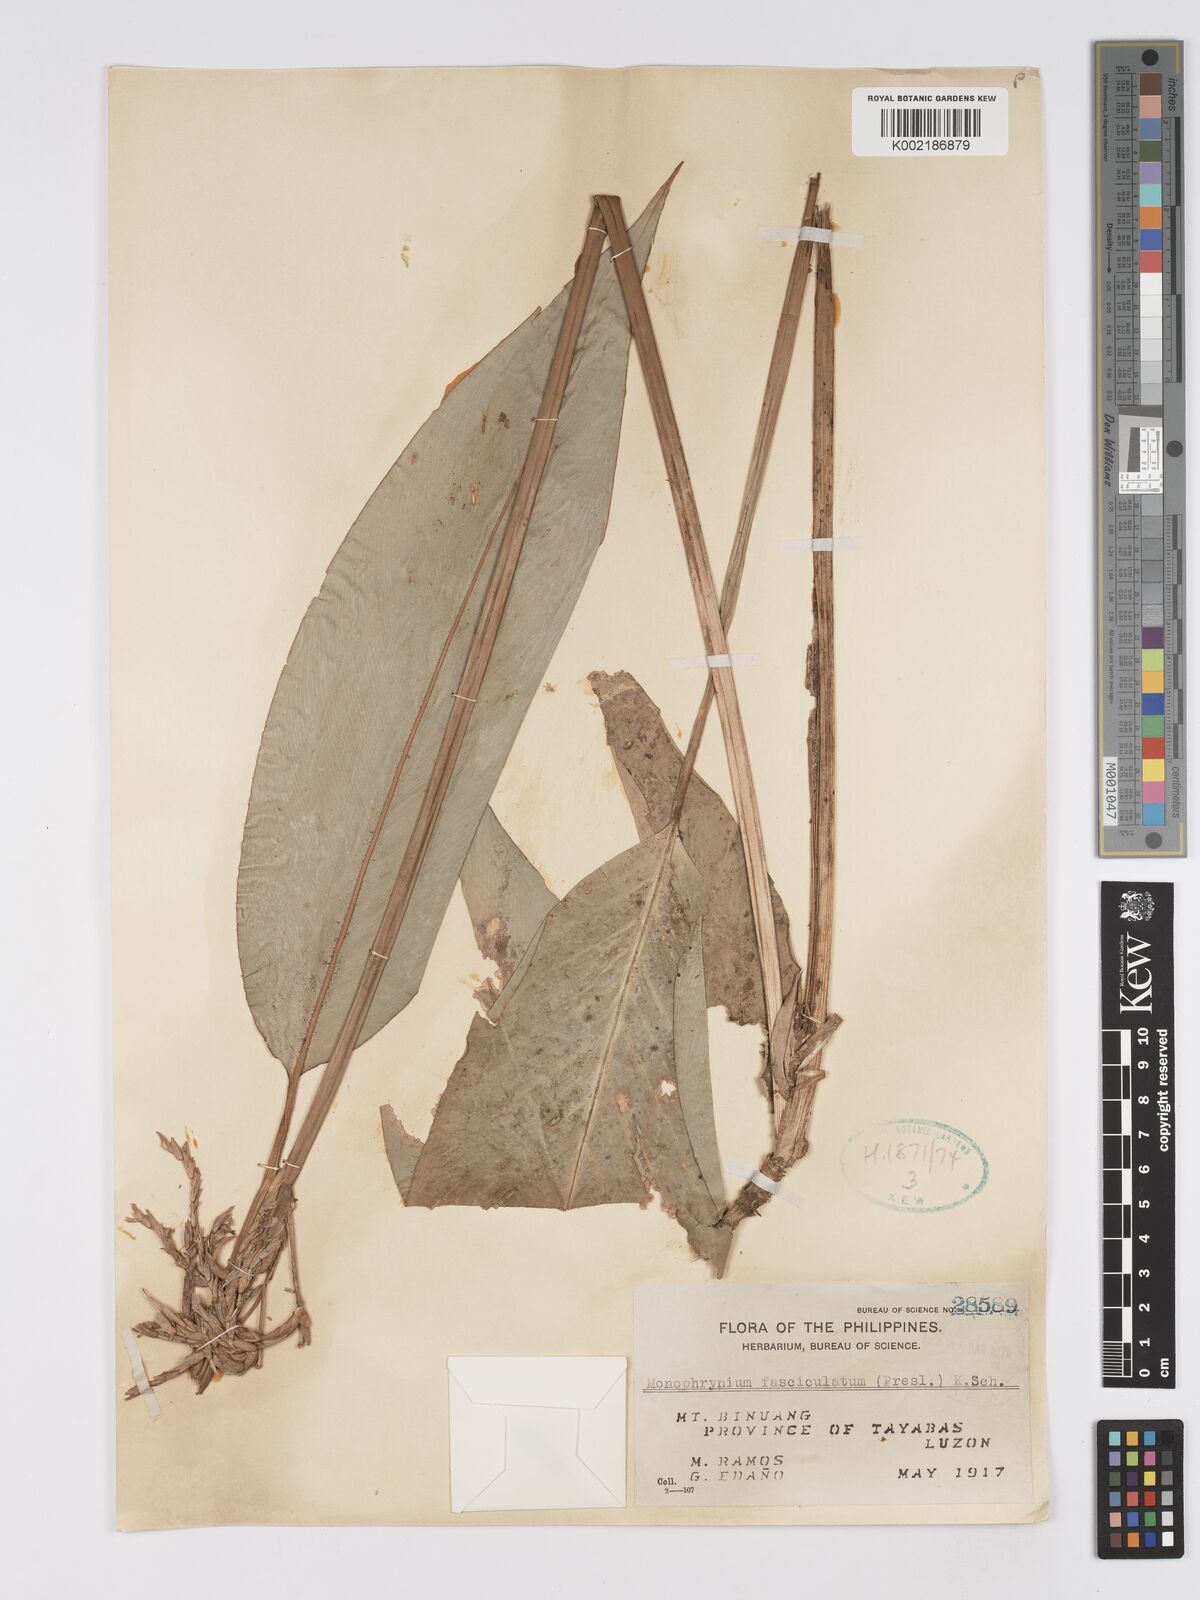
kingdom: Plantae
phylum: Tracheophyta
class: Liliopsida
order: Zingiberales
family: Marantaceae
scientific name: Marantaceae
